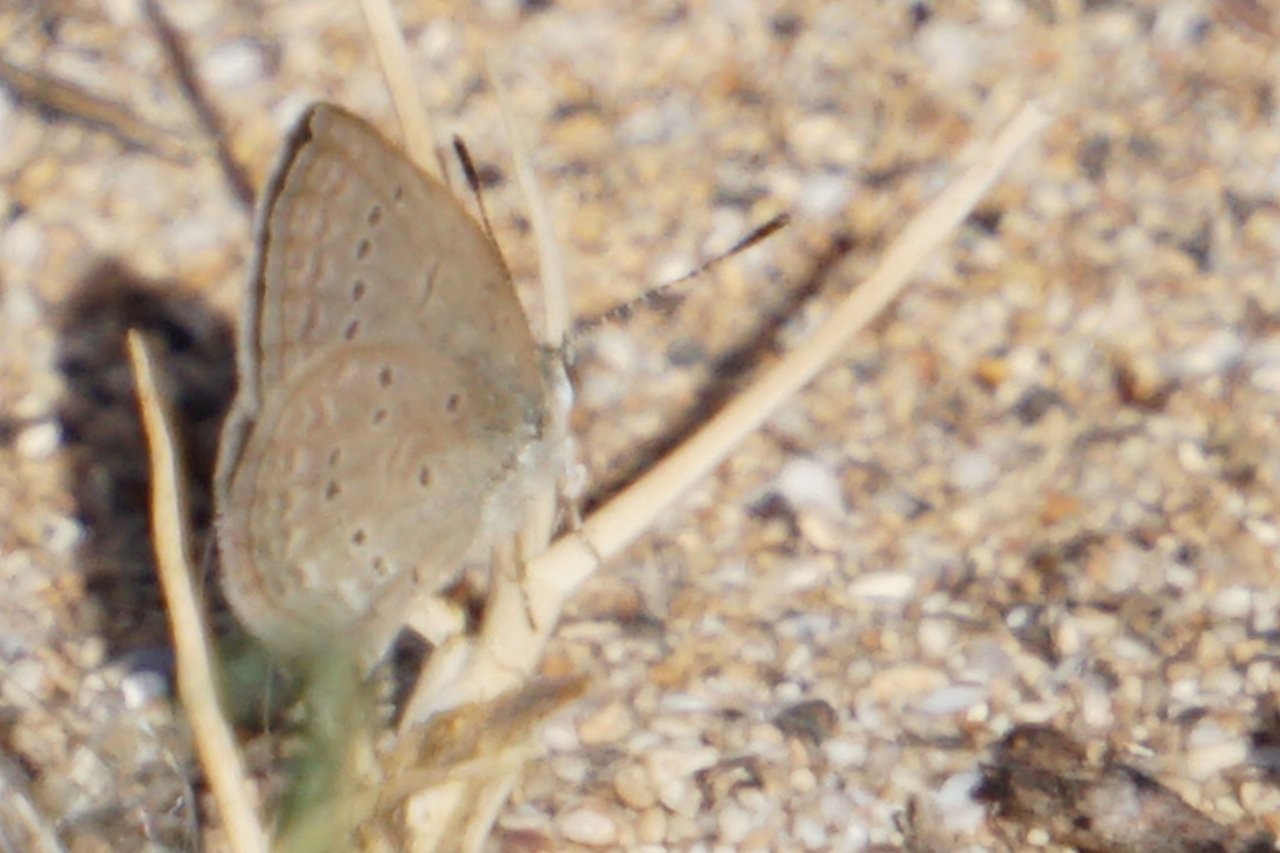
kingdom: Animalia
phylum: Arthropoda
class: Insecta
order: Lepidoptera
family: Lycaenidae
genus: Zizina
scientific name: Zizina otis
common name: Lesser Grass Blue
